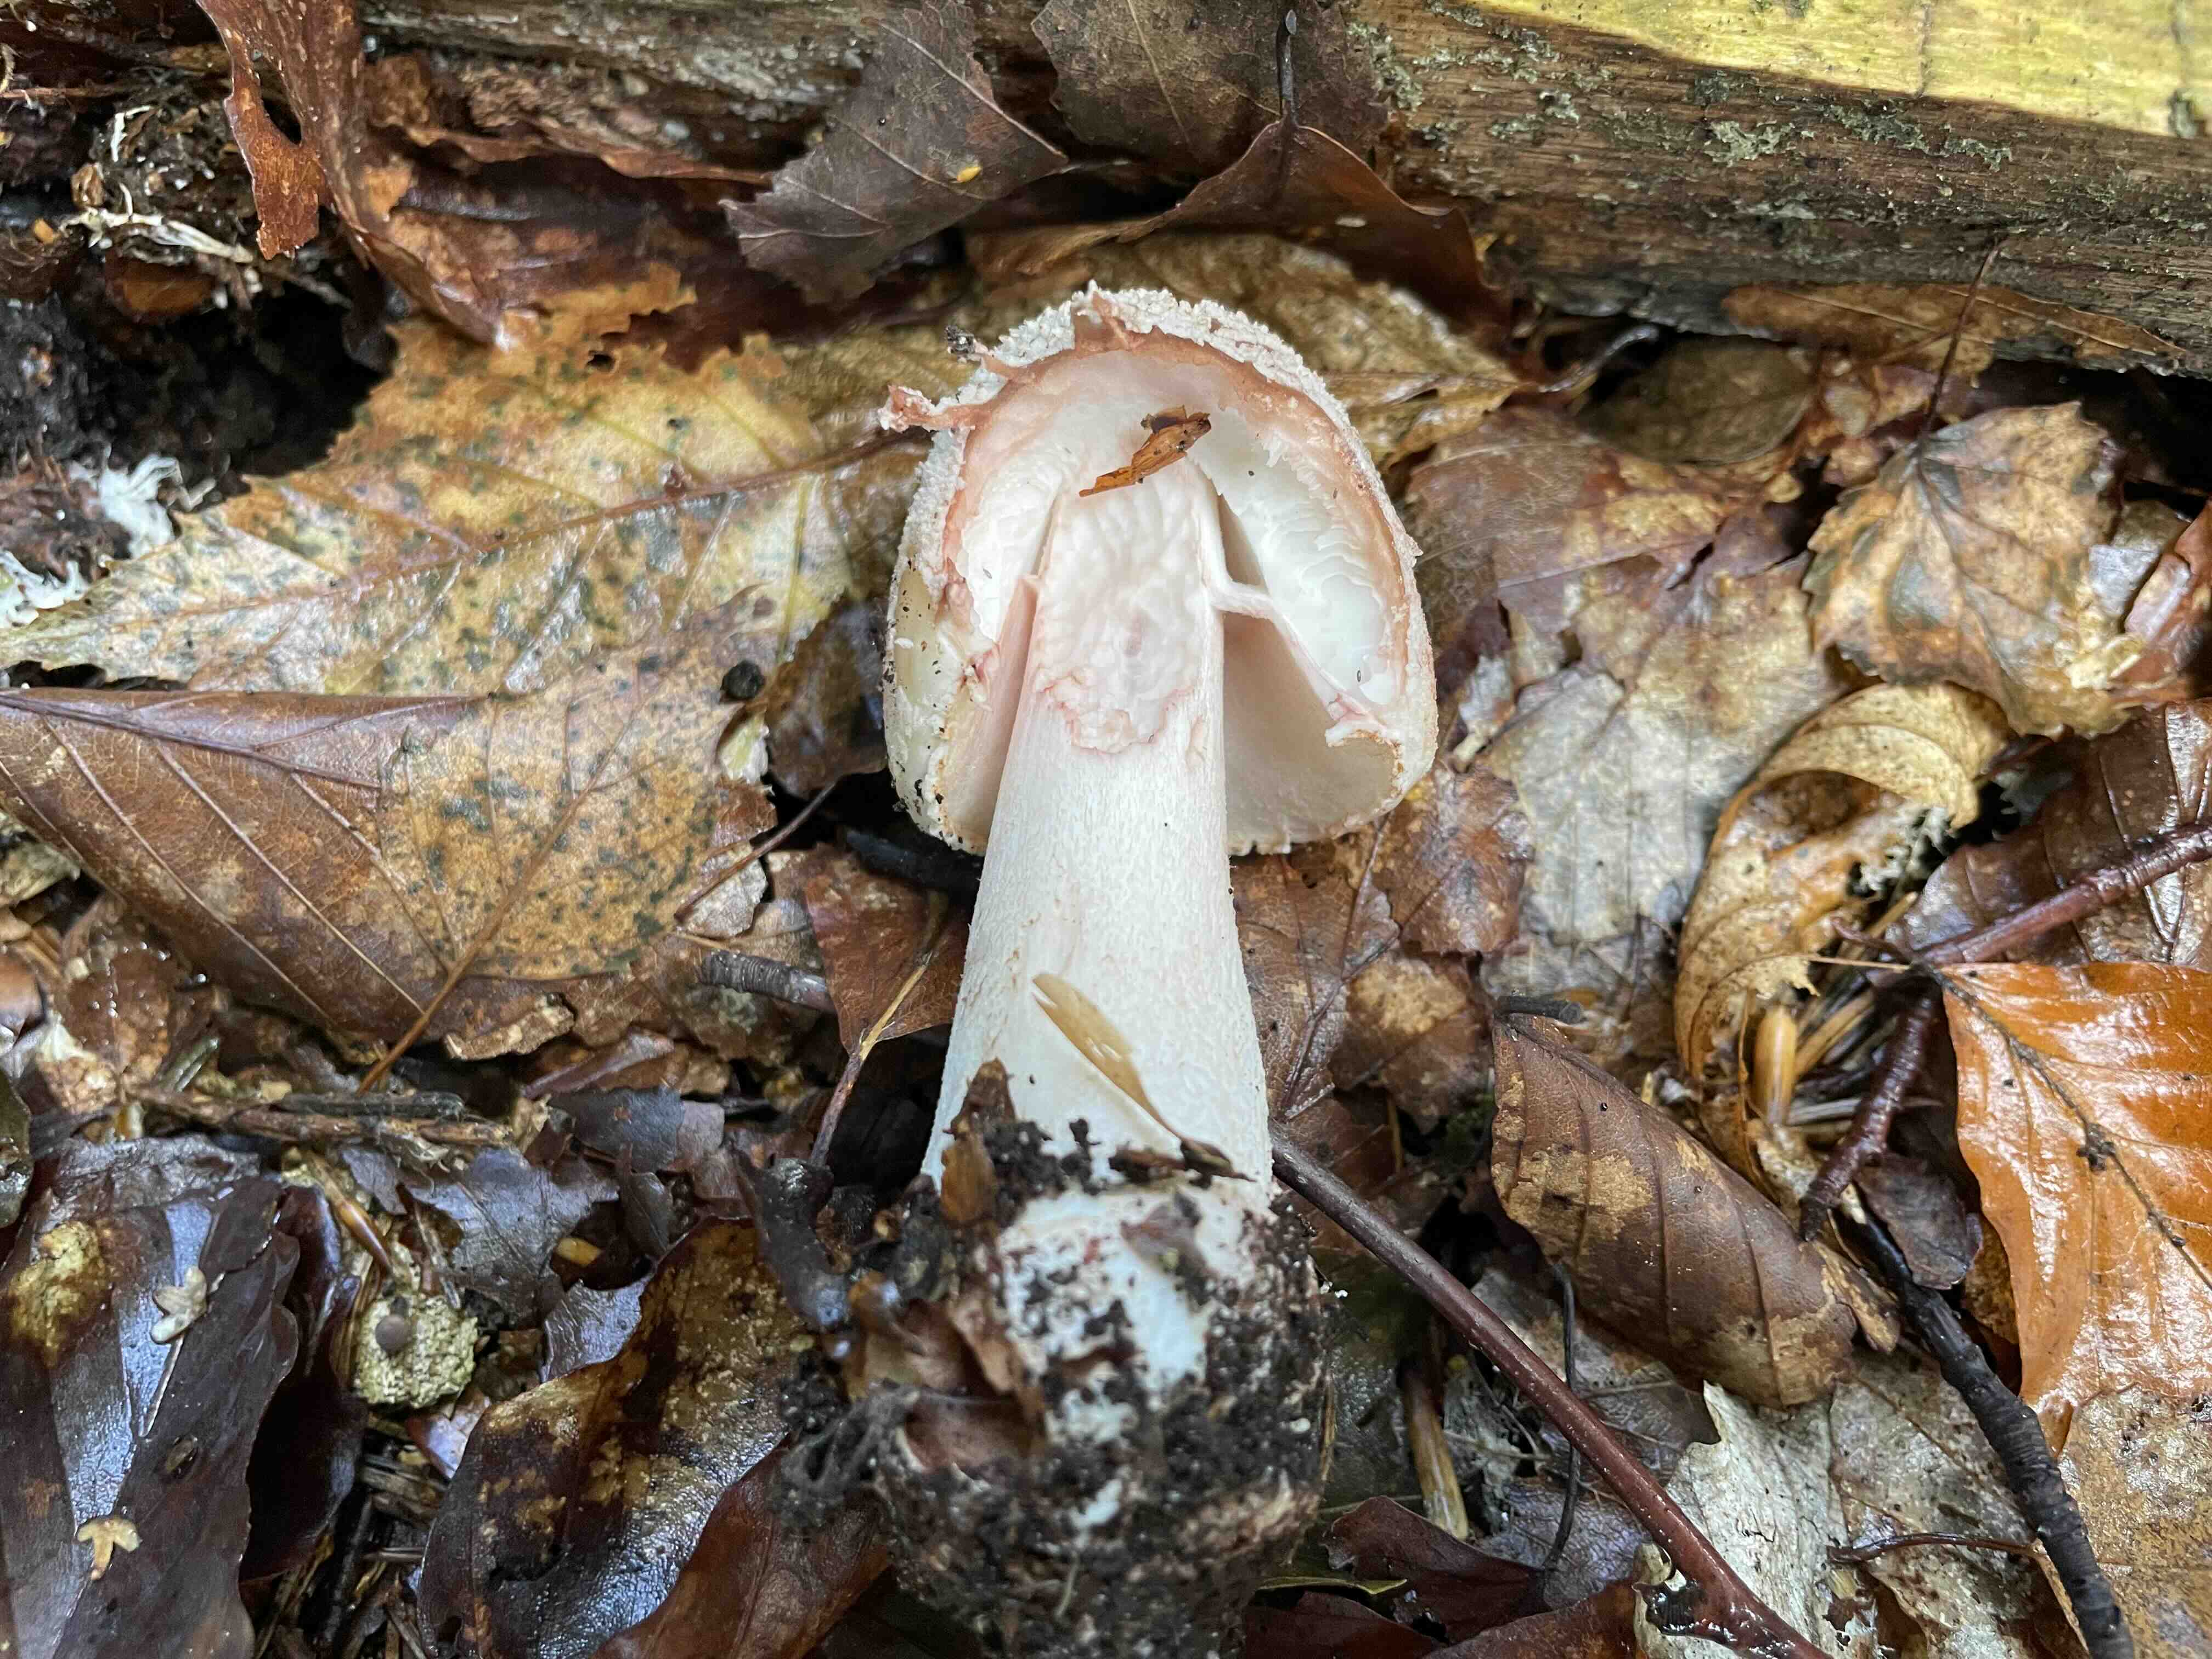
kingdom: Fungi
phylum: Basidiomycota
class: Agaricomycetes
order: Agaricales
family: Amanitaceae
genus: Amanita
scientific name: Amanita rubescens
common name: rødmende fluesvamp
